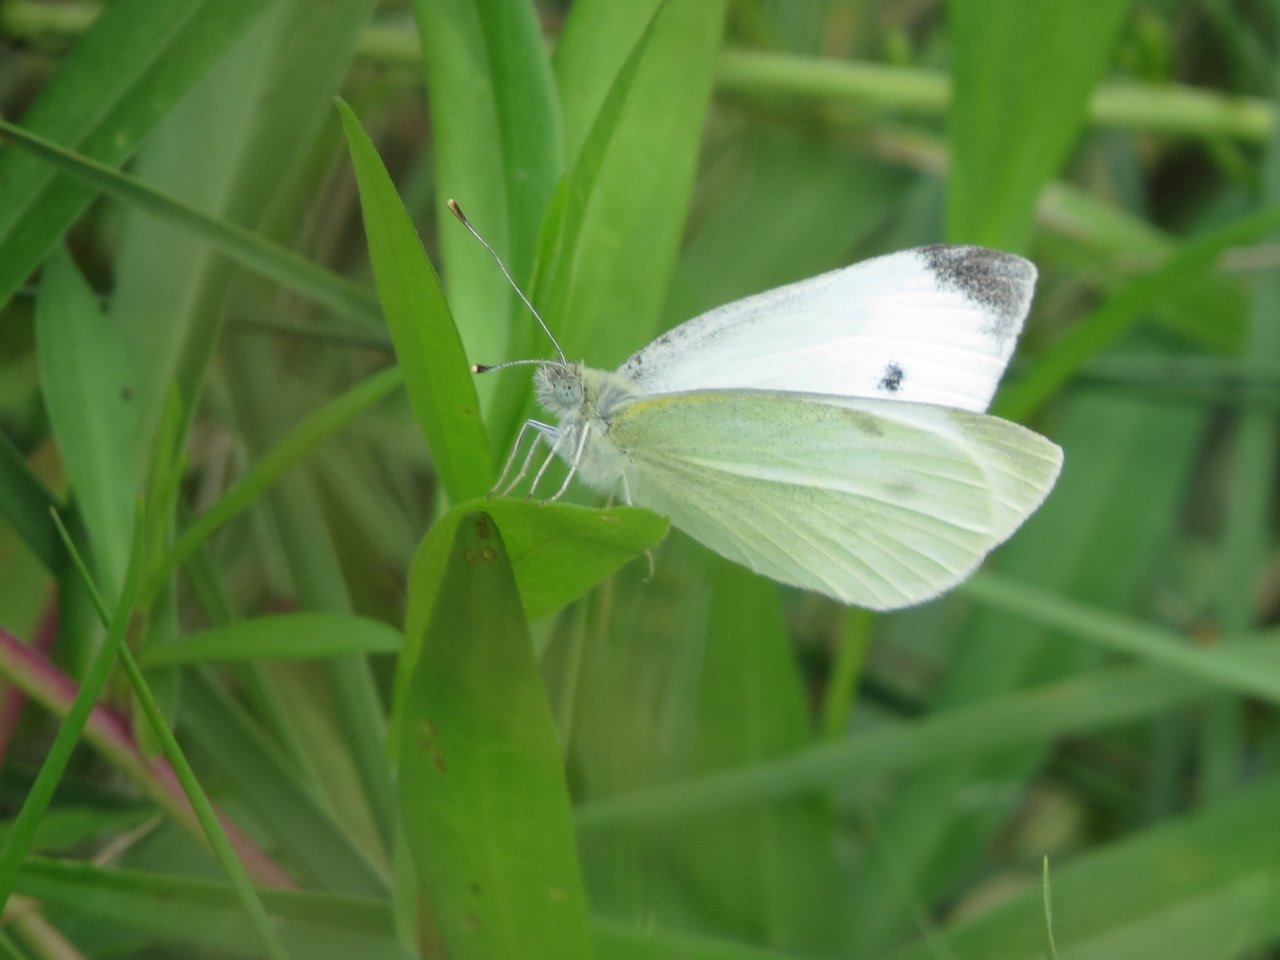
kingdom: Animalia
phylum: Arthropoda
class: Insecta
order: Lepidoptera
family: Pieridae
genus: Pieris
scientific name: Pieris rapae
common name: Cabbage White
